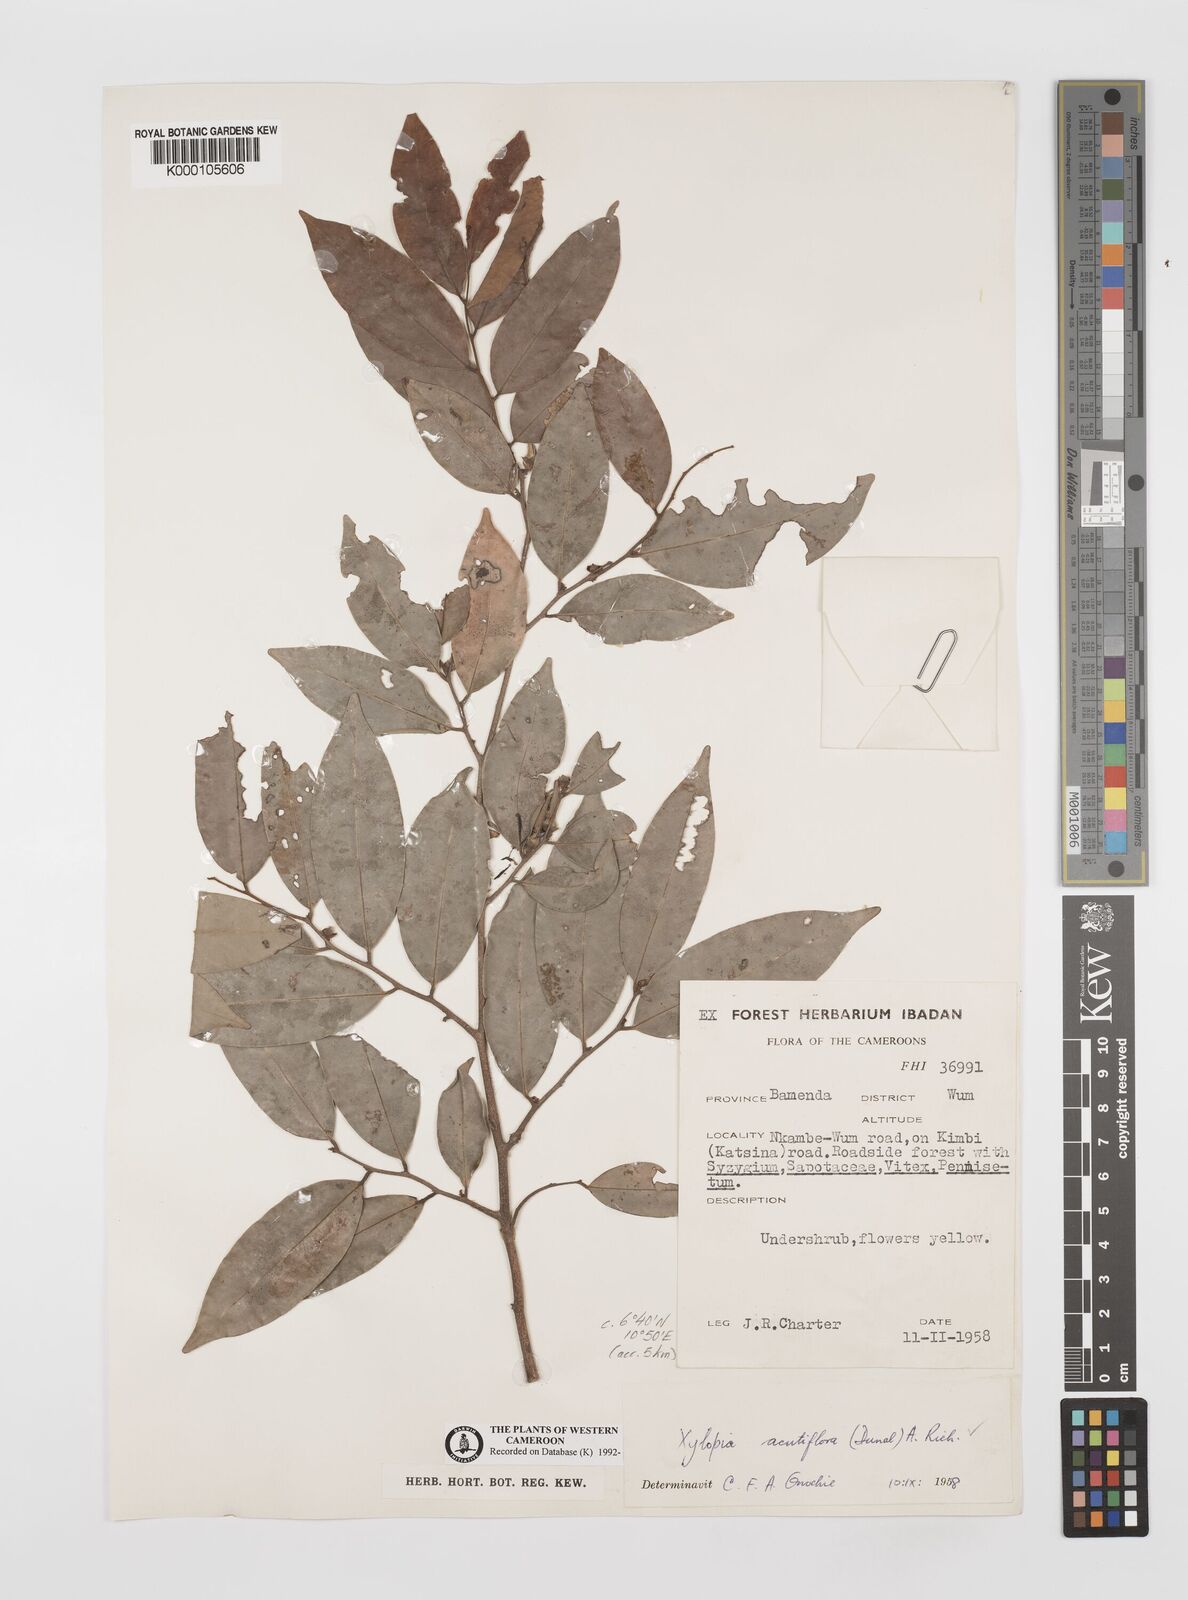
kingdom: Plantae
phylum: Tracheophyta
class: Magnoliopsida
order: Magnoliales
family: Annonaceae
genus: Xylopia
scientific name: Xylopia acutiflora
